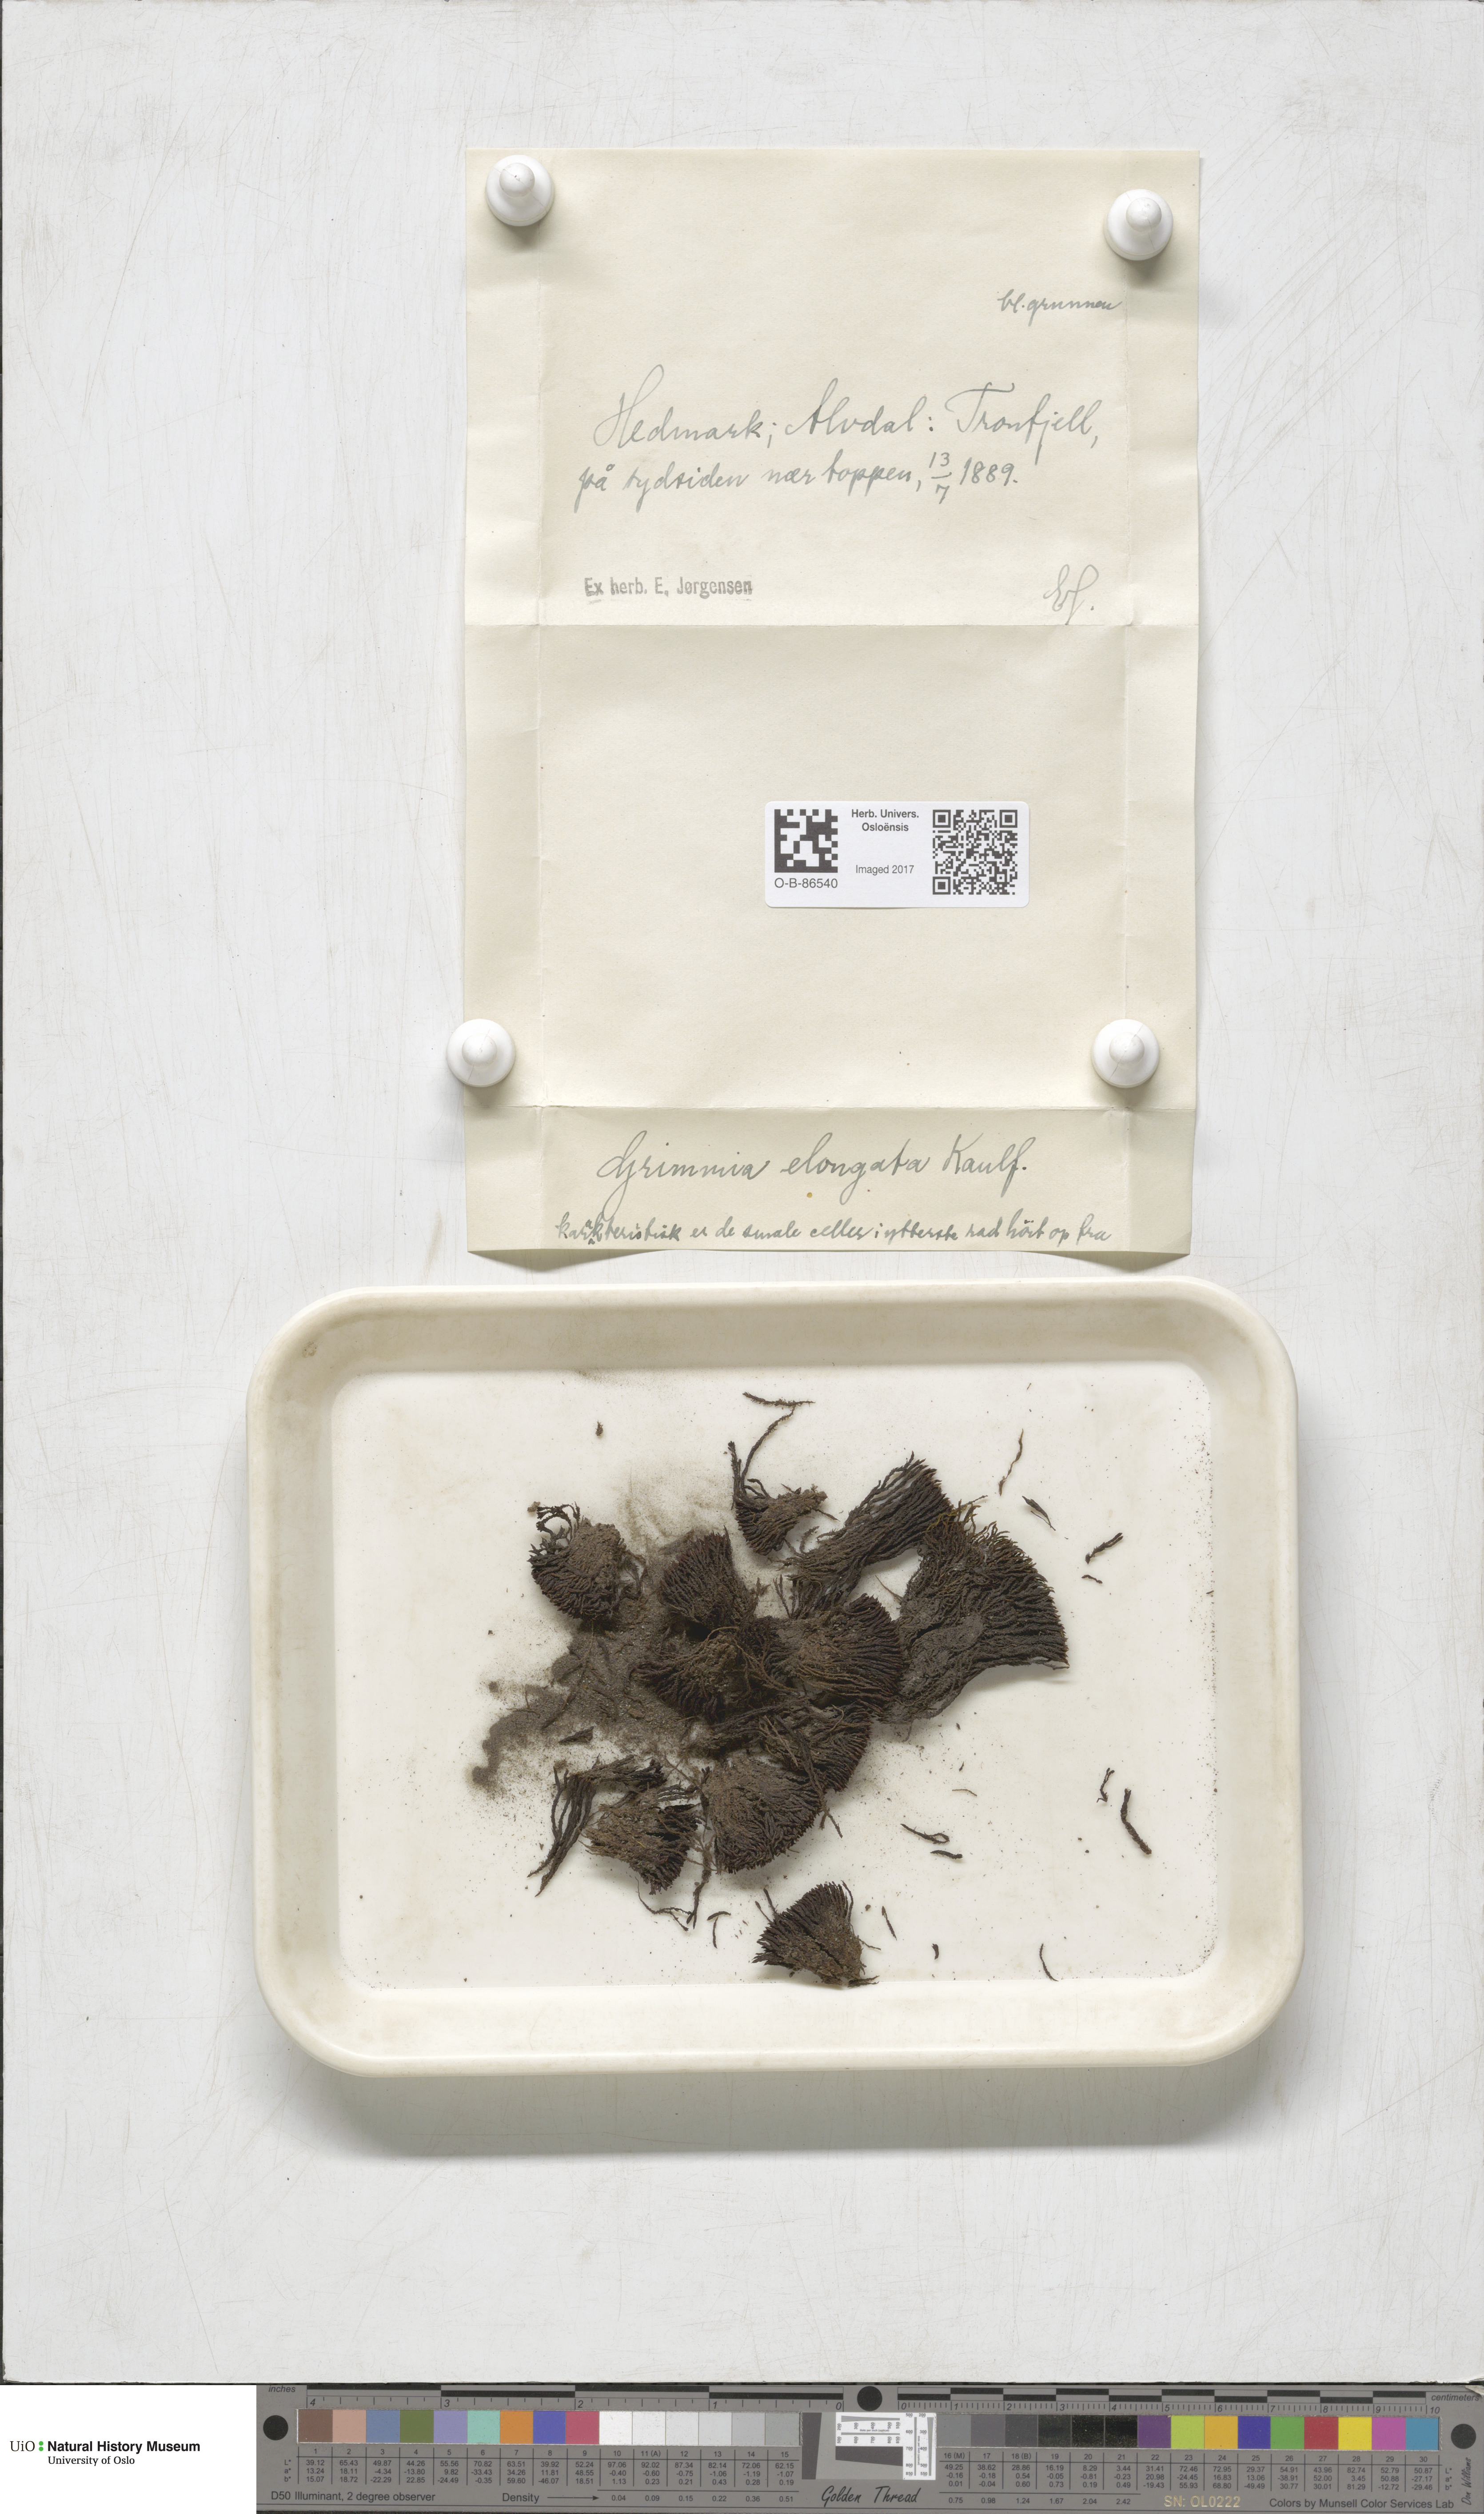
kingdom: Plantae
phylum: Bryophyta
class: Bryopsida
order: Grimmiales
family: Grimmiaceae
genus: Grimmia
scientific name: Grimmia elongata
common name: Brown grimmia
